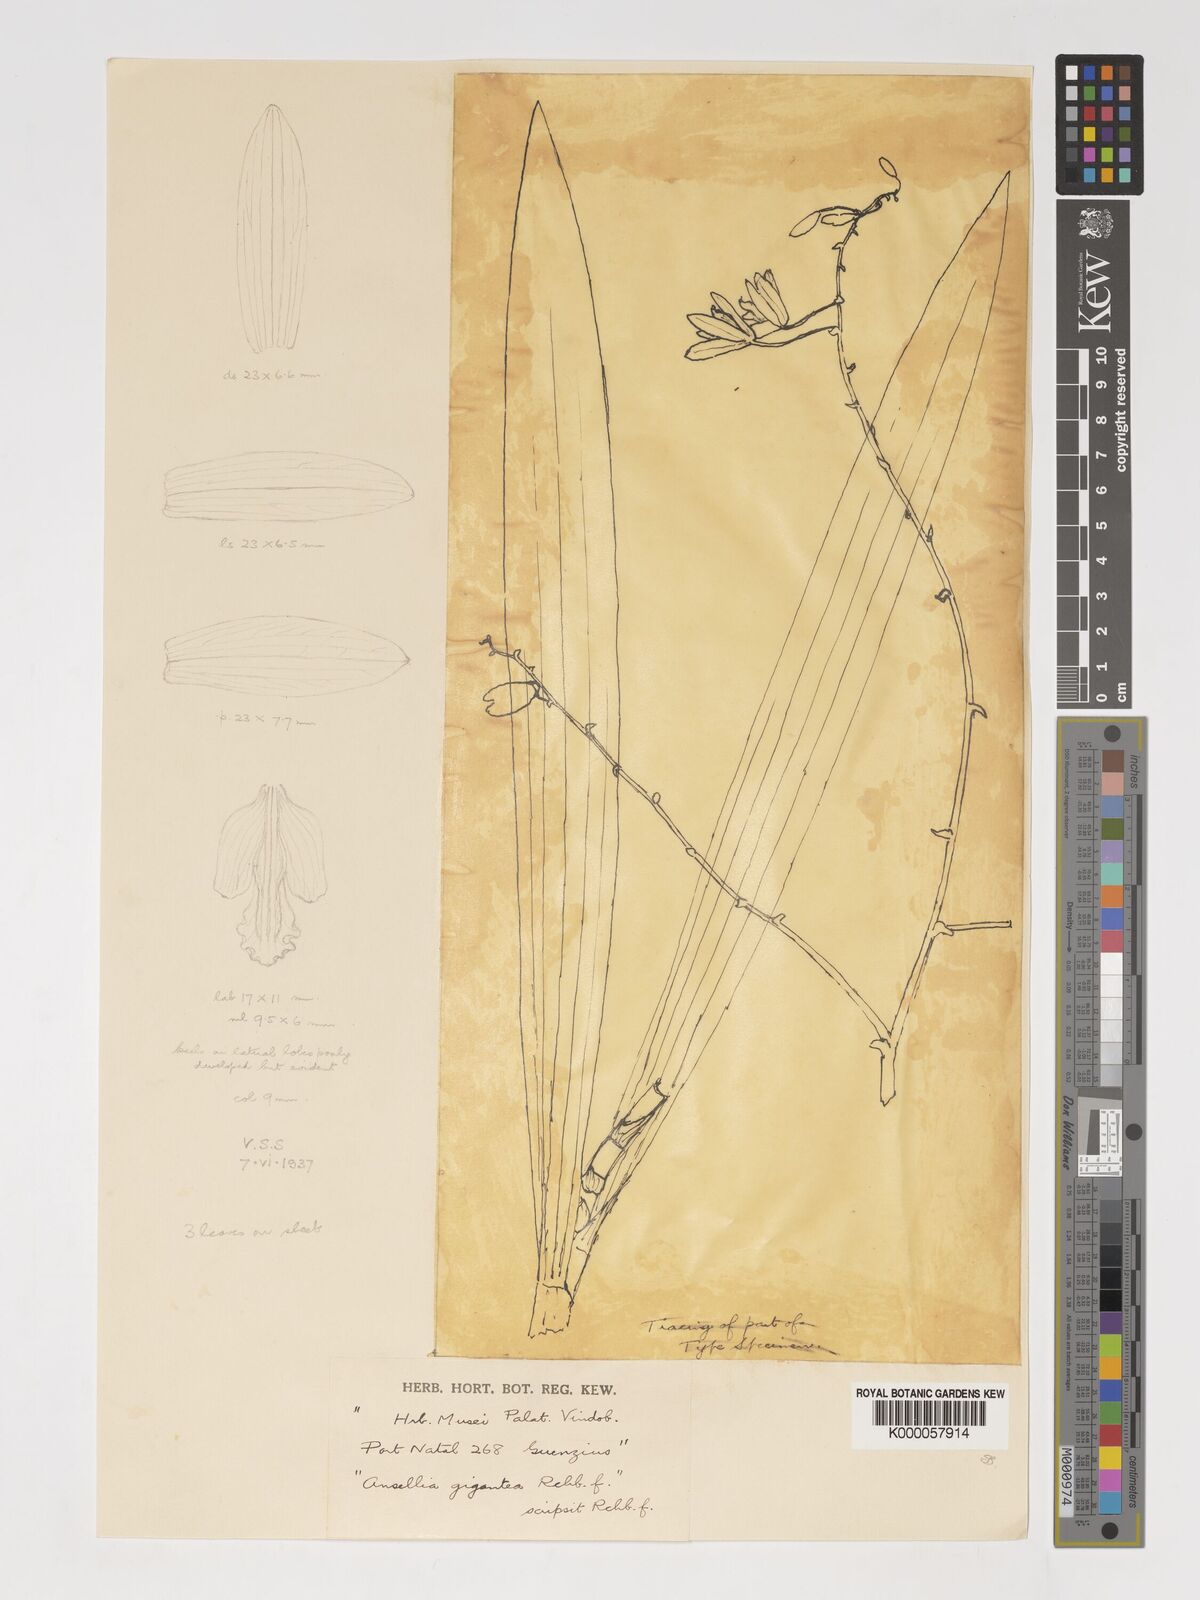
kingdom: Plantae
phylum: Tracheophyta
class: Liliopsida
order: Asparagales
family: Orchidaceae
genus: Ansellia
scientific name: Ansellia africana
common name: African ansellia
